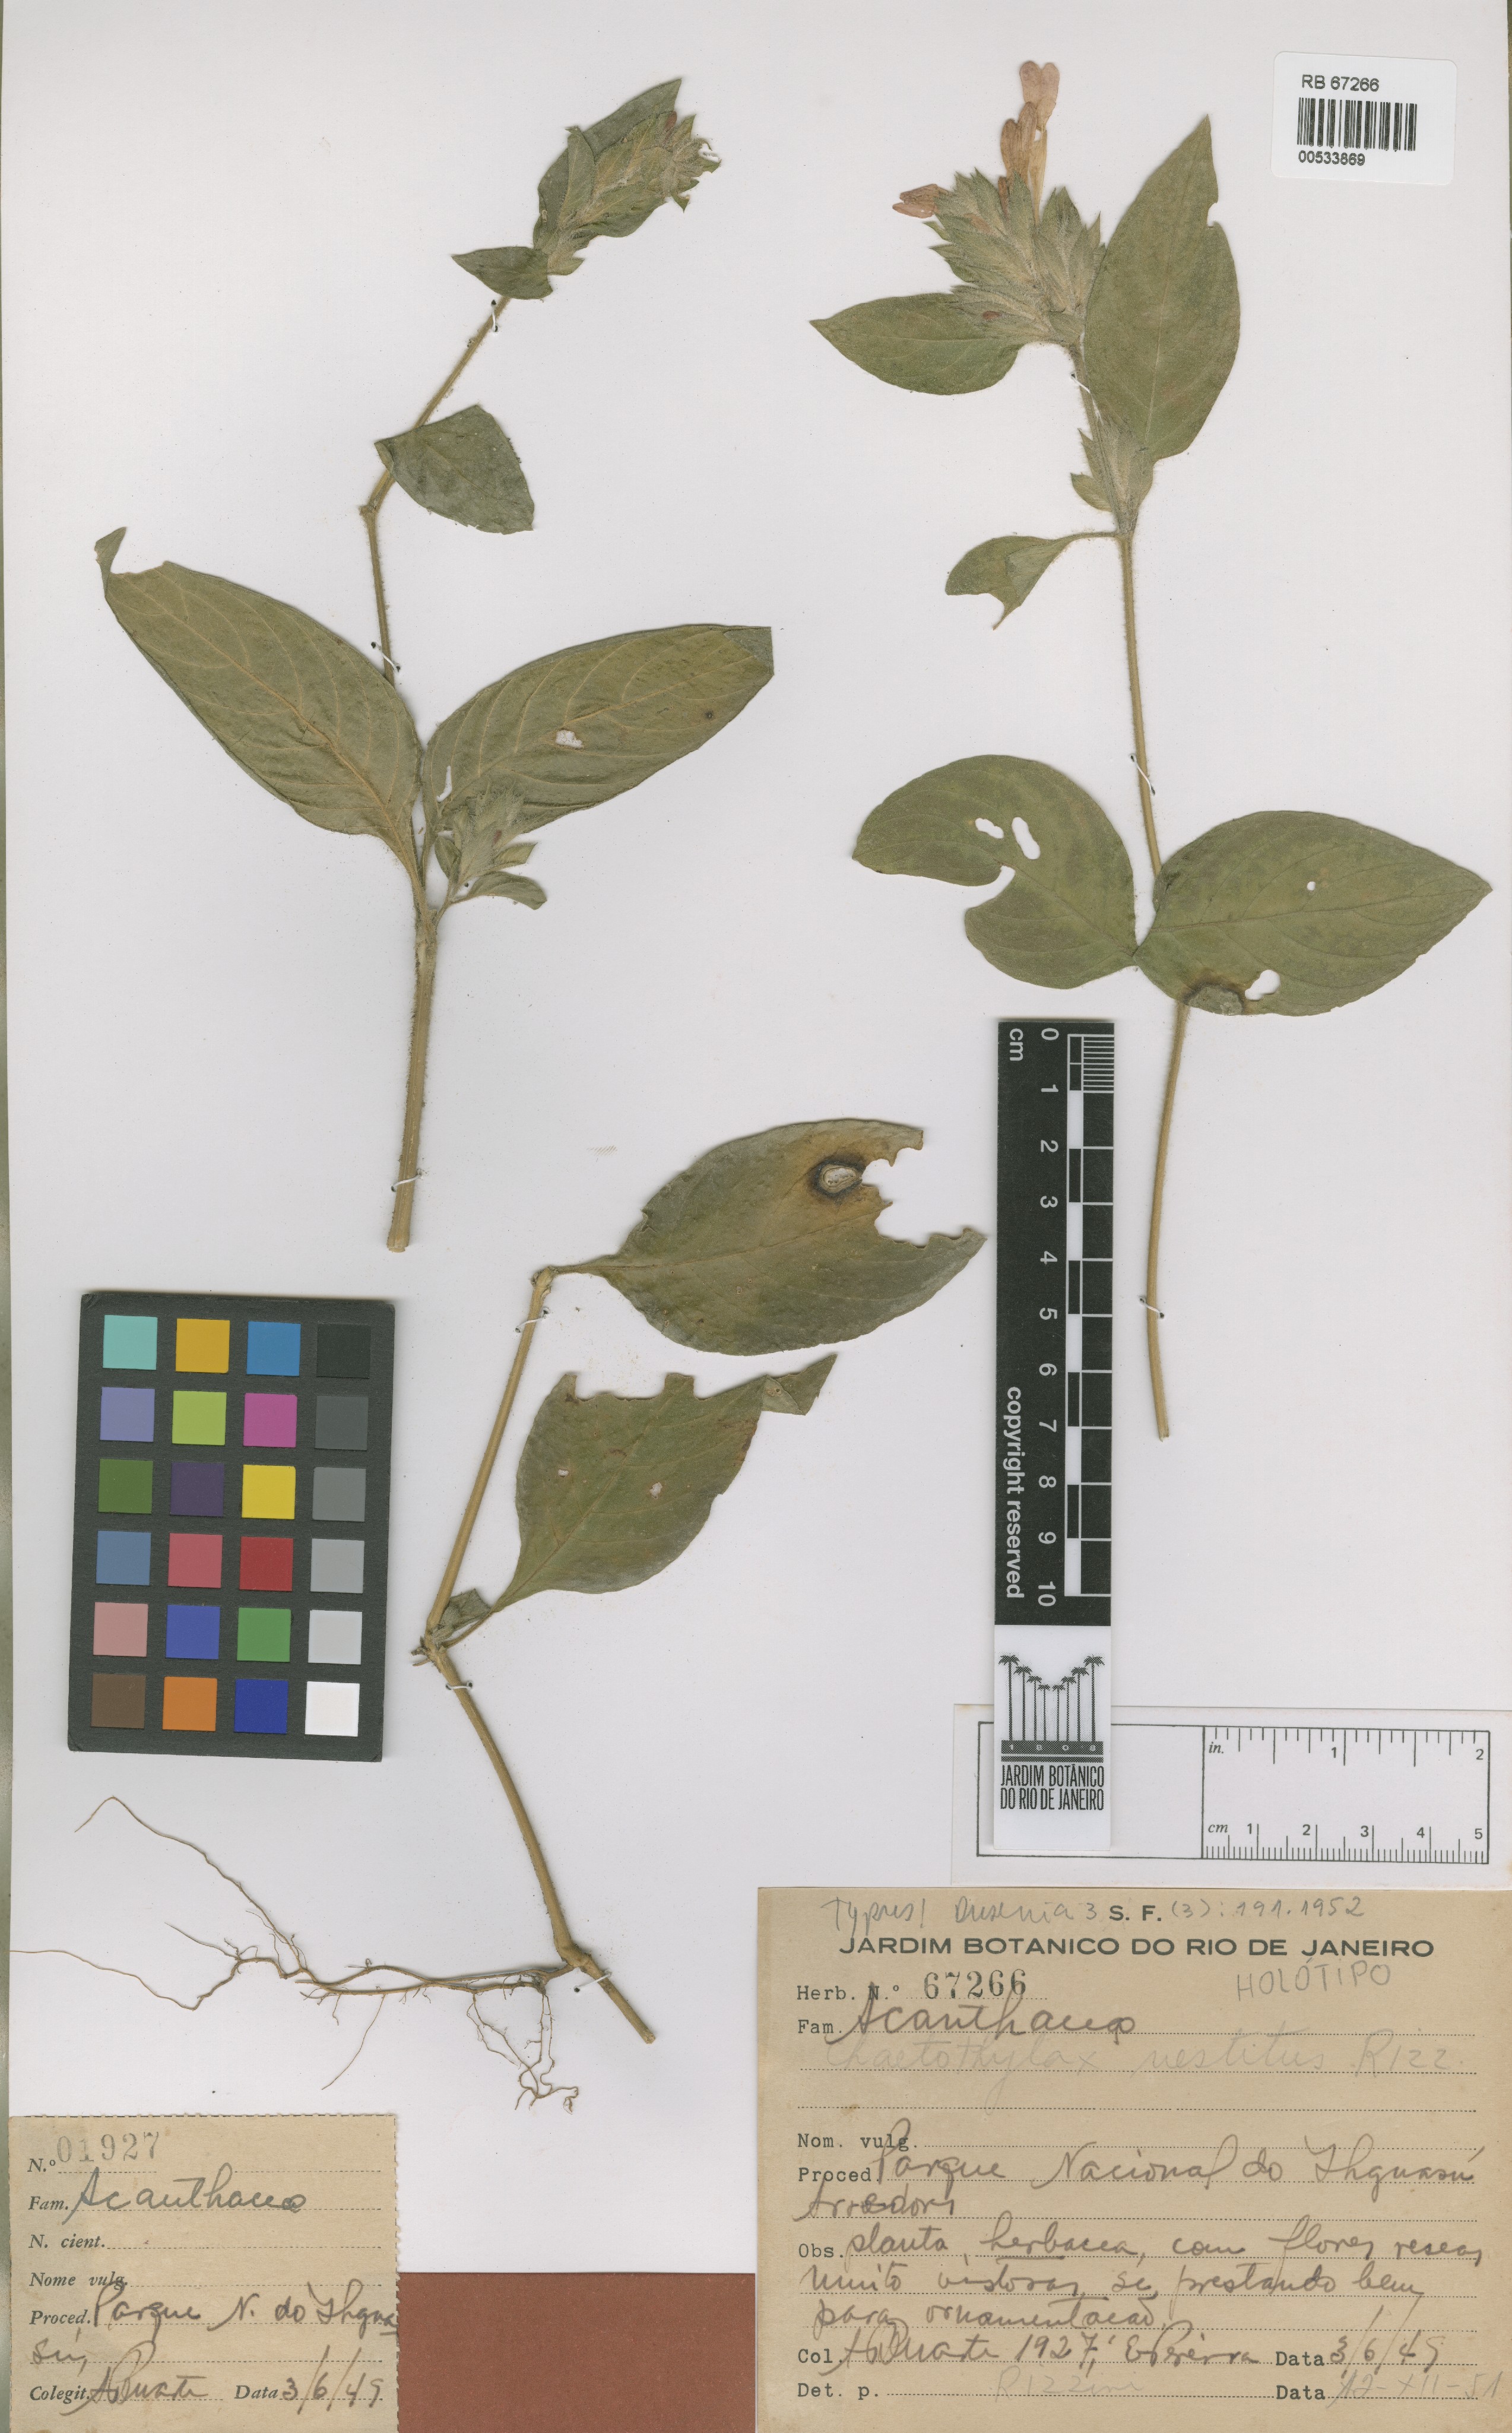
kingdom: Plantae
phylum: Tracheophyta
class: Magnoliopsida
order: Lamiales
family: Acanthaceae
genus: Justicia
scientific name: Justicia goudotii
